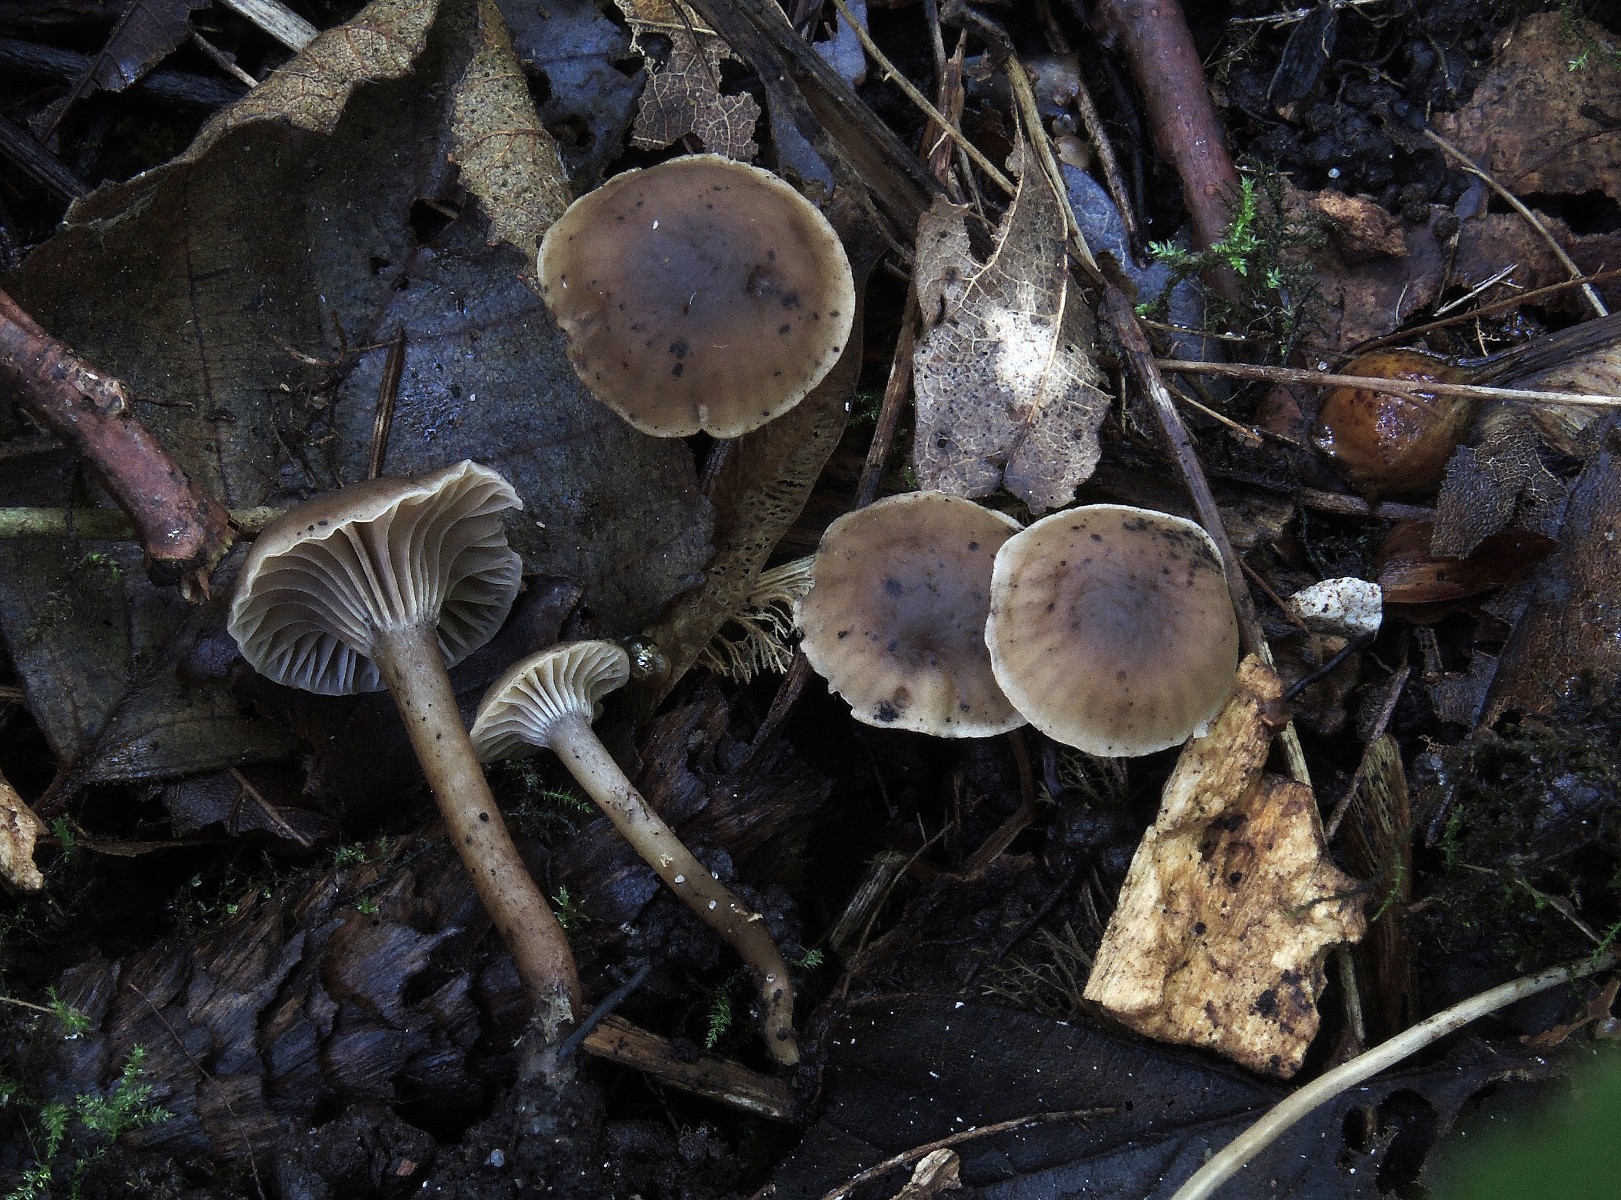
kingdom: Fungi
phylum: Basidiomycota
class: Agaricomycetes
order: Agaricales
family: Clavariaceae
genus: Hodophilus
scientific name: Hodophilus foetens
